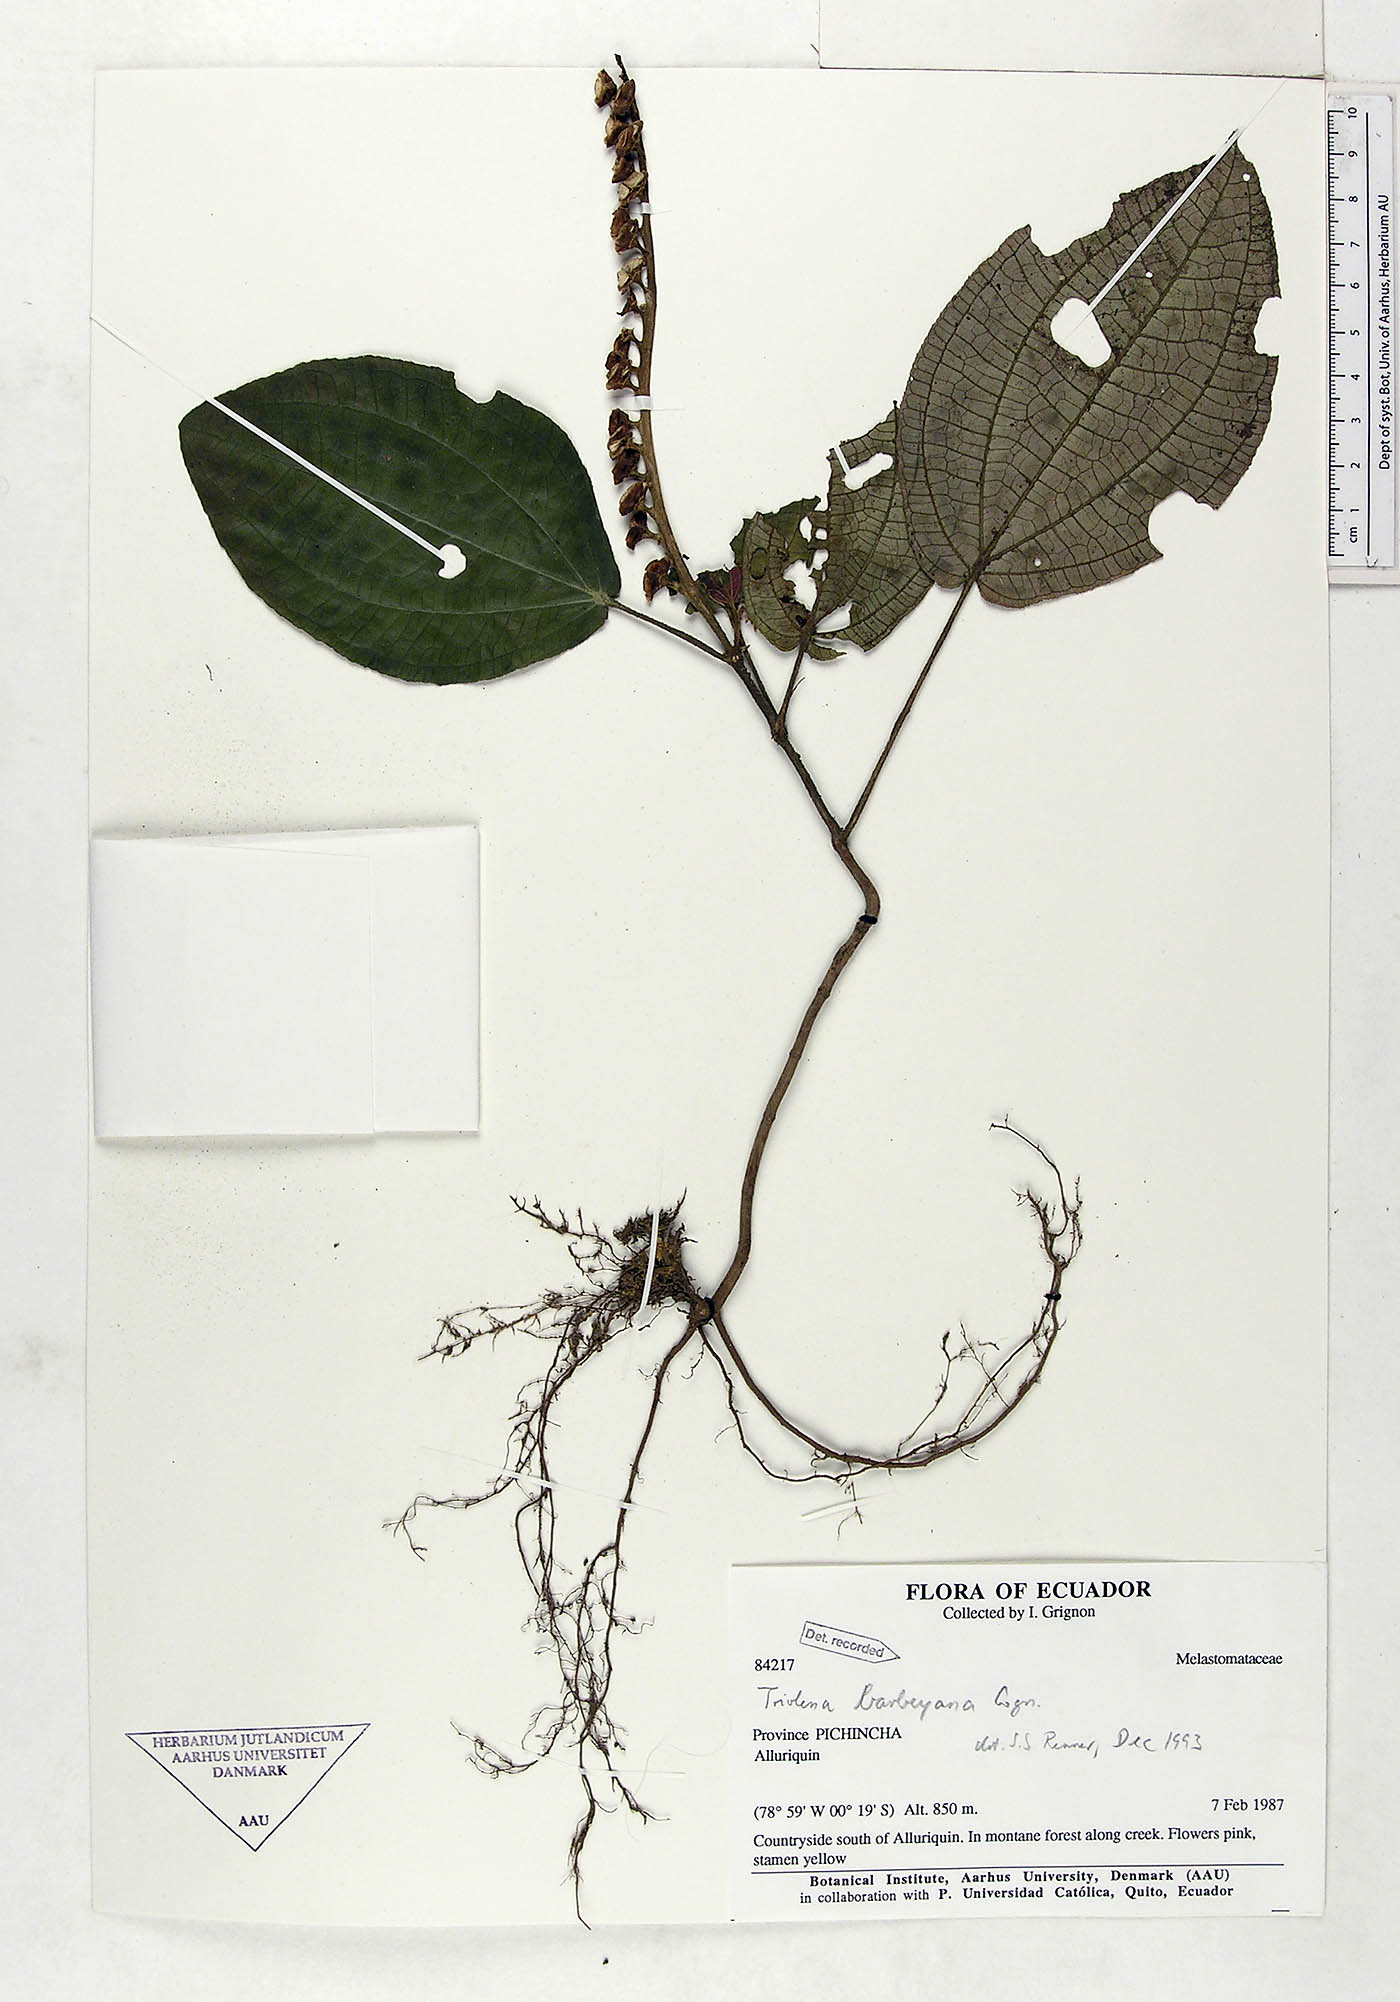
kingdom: Plantae
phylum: Tracheophyta
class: Magnoliopsida
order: Myrtales
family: Melastomataceae
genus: Triolena
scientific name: Triolena barbeyana
